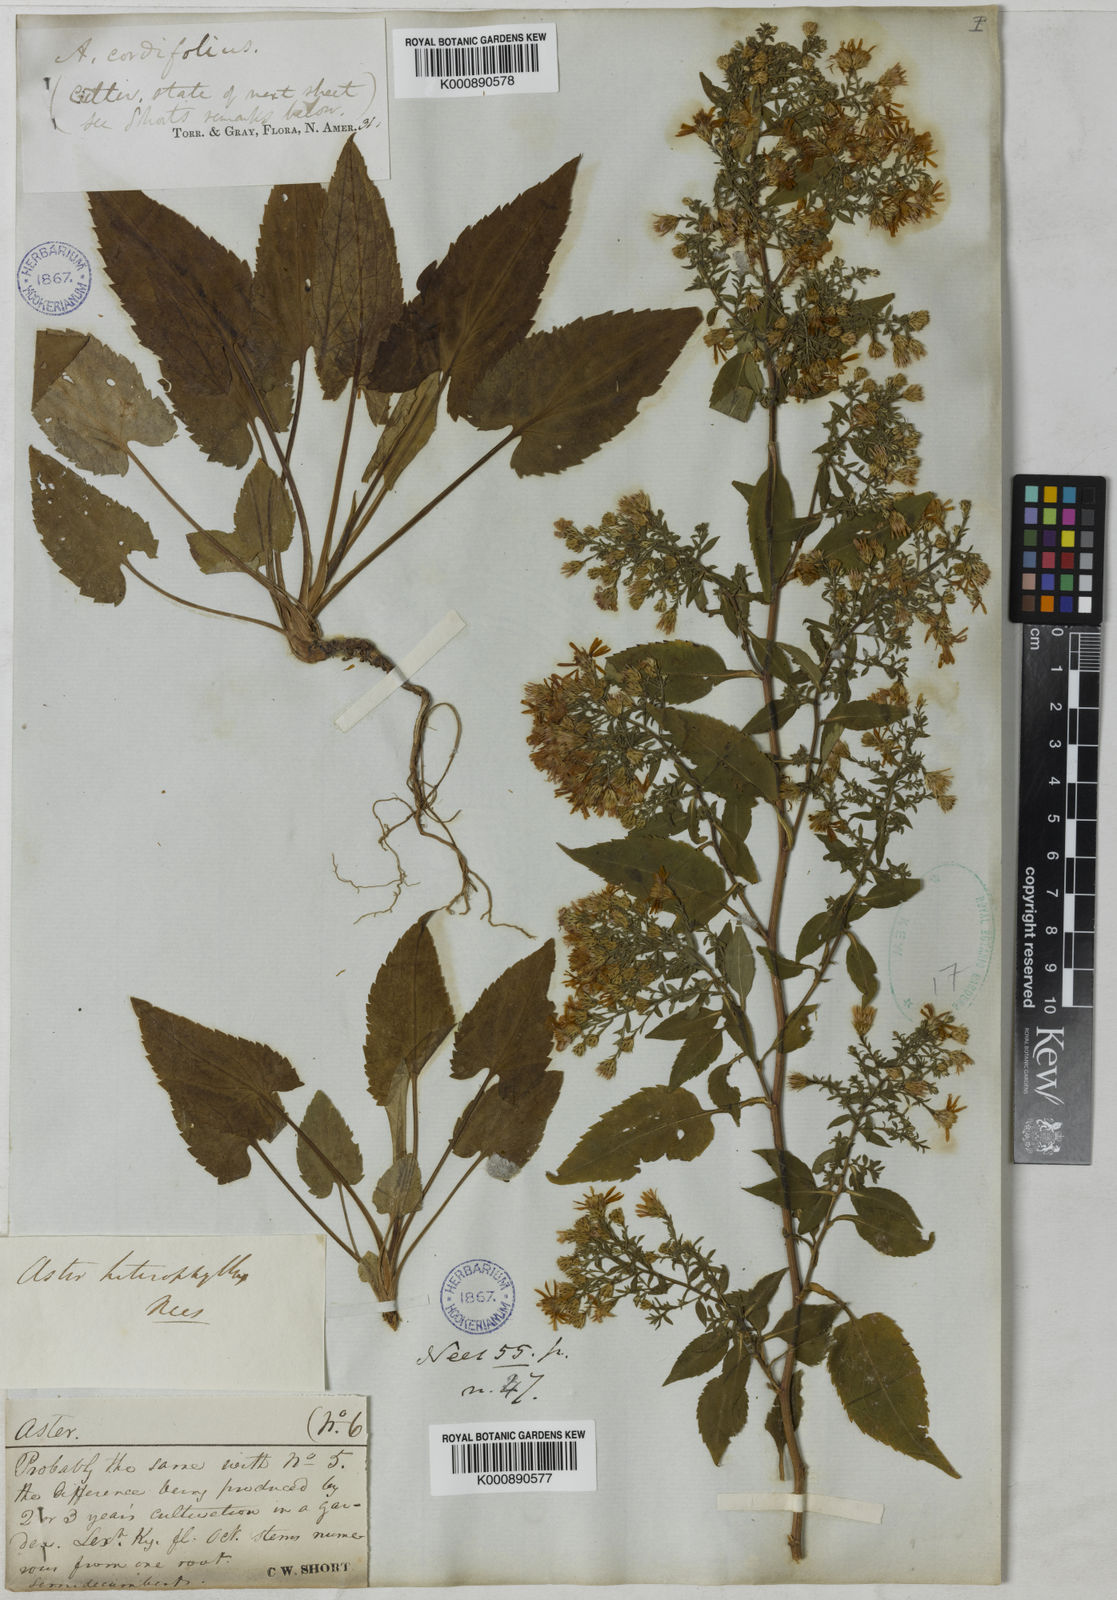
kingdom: Plantae
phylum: Tracheophyta
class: Magnoliopsida
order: Asterales
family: Asteraceae
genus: Symphyotrichum
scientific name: Symphyotrichum cordifolium
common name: Beeweed
